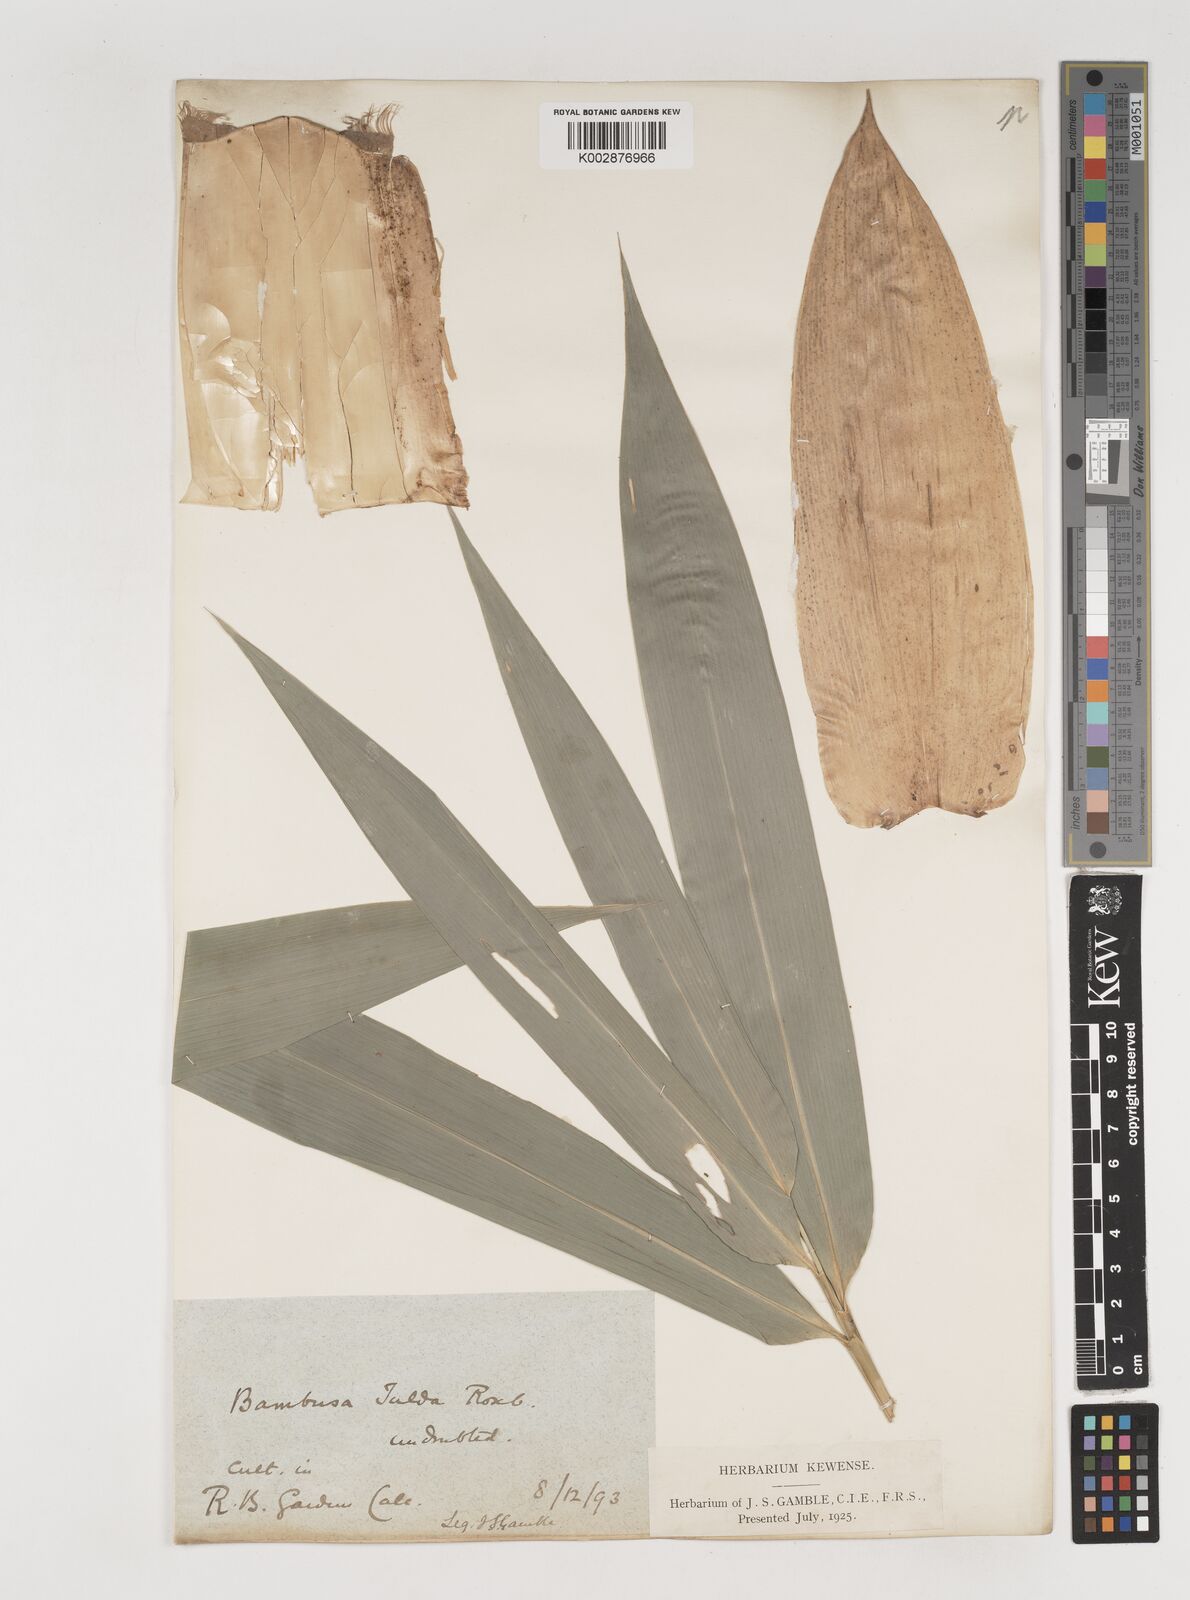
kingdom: Plantae
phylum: Tracheophyta
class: Liliopsida
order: Poales
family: Poaceae
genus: Bambusa
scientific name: Bambusa tulda
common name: Bengal bamboo
